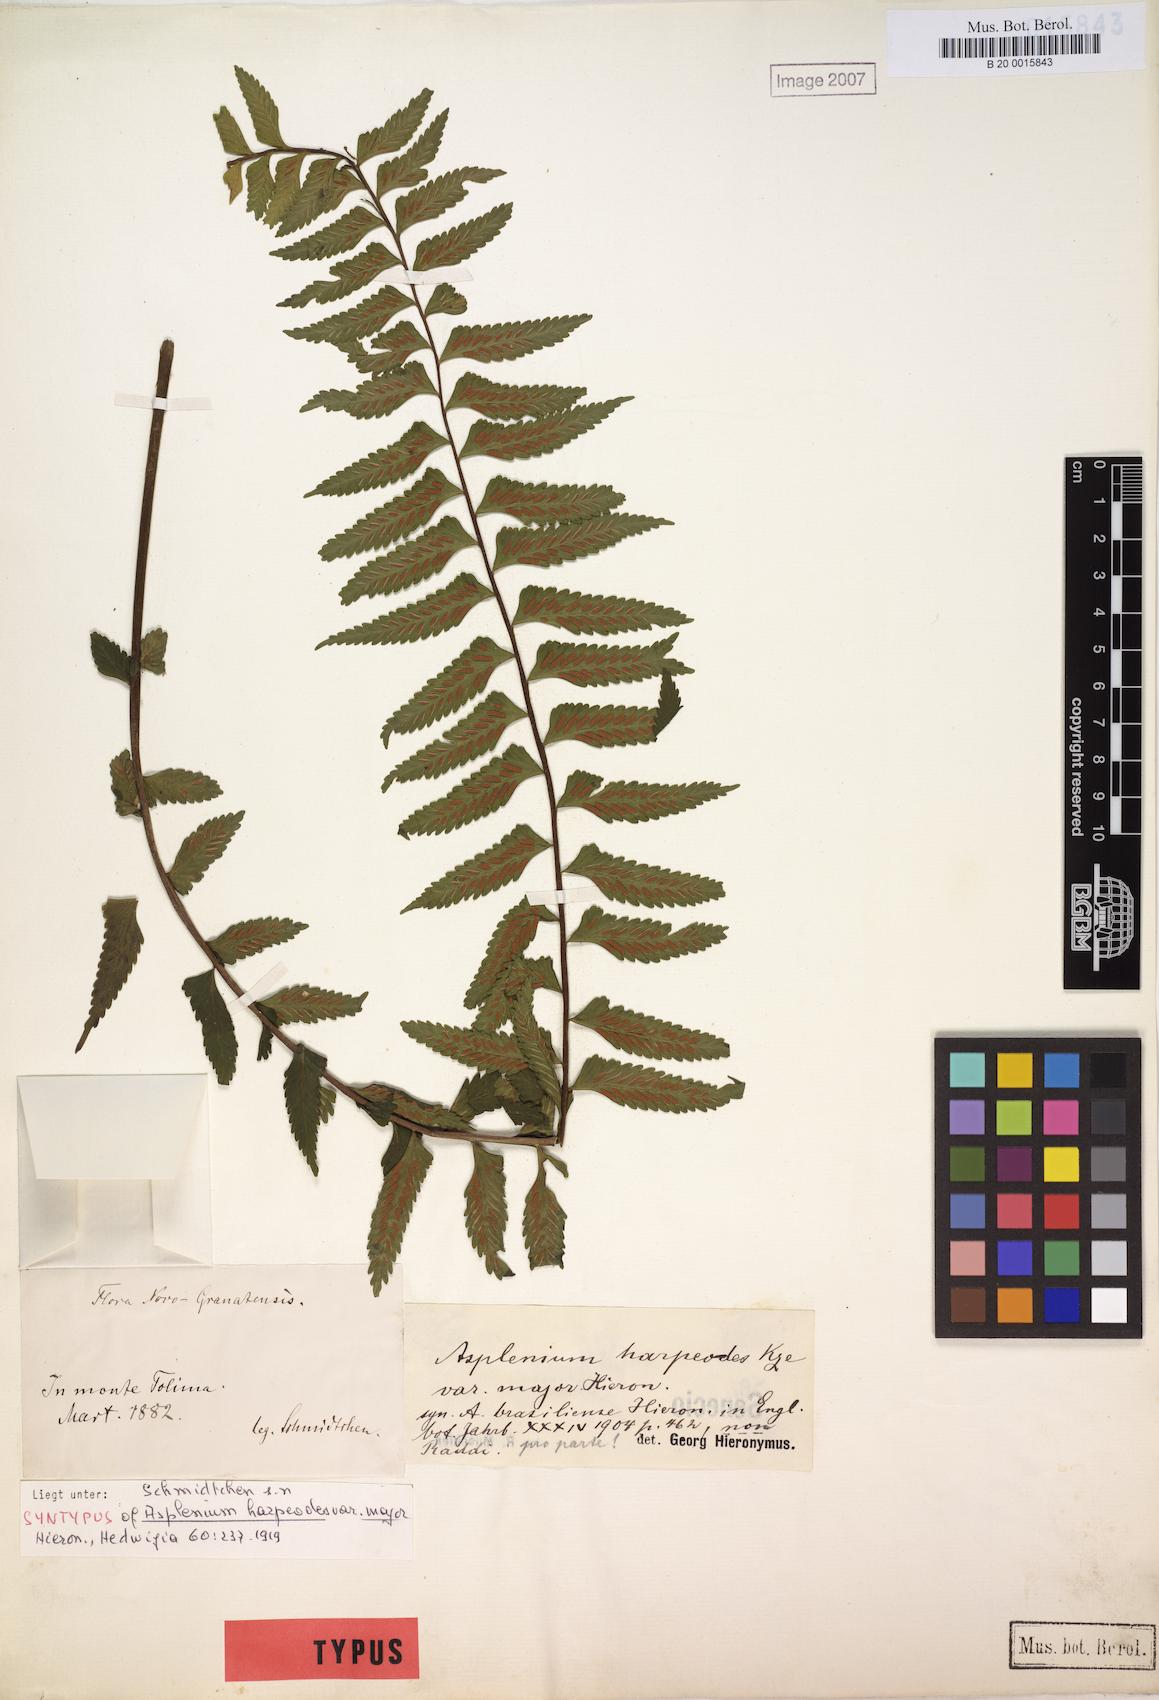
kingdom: Plantae
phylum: Tracheophyta
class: Polypodiopsida
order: Polypodiales
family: Aspleniaceae
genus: Asplenium
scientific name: Asplenium harpeodes
